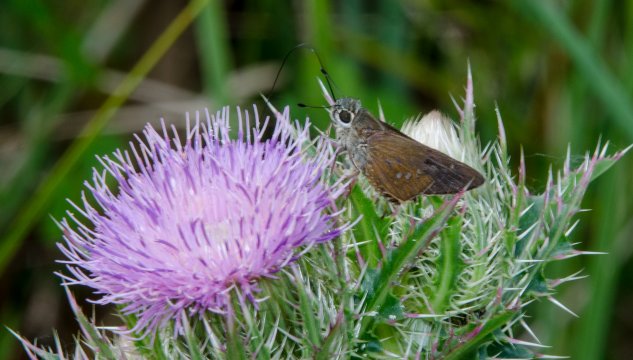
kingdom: Animalia
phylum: Arthropoda
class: Insecta
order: Lepidoptera
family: Hesperiidae
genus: Calpodes
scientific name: Calpodes ethlius
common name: Brazilian Skipper
